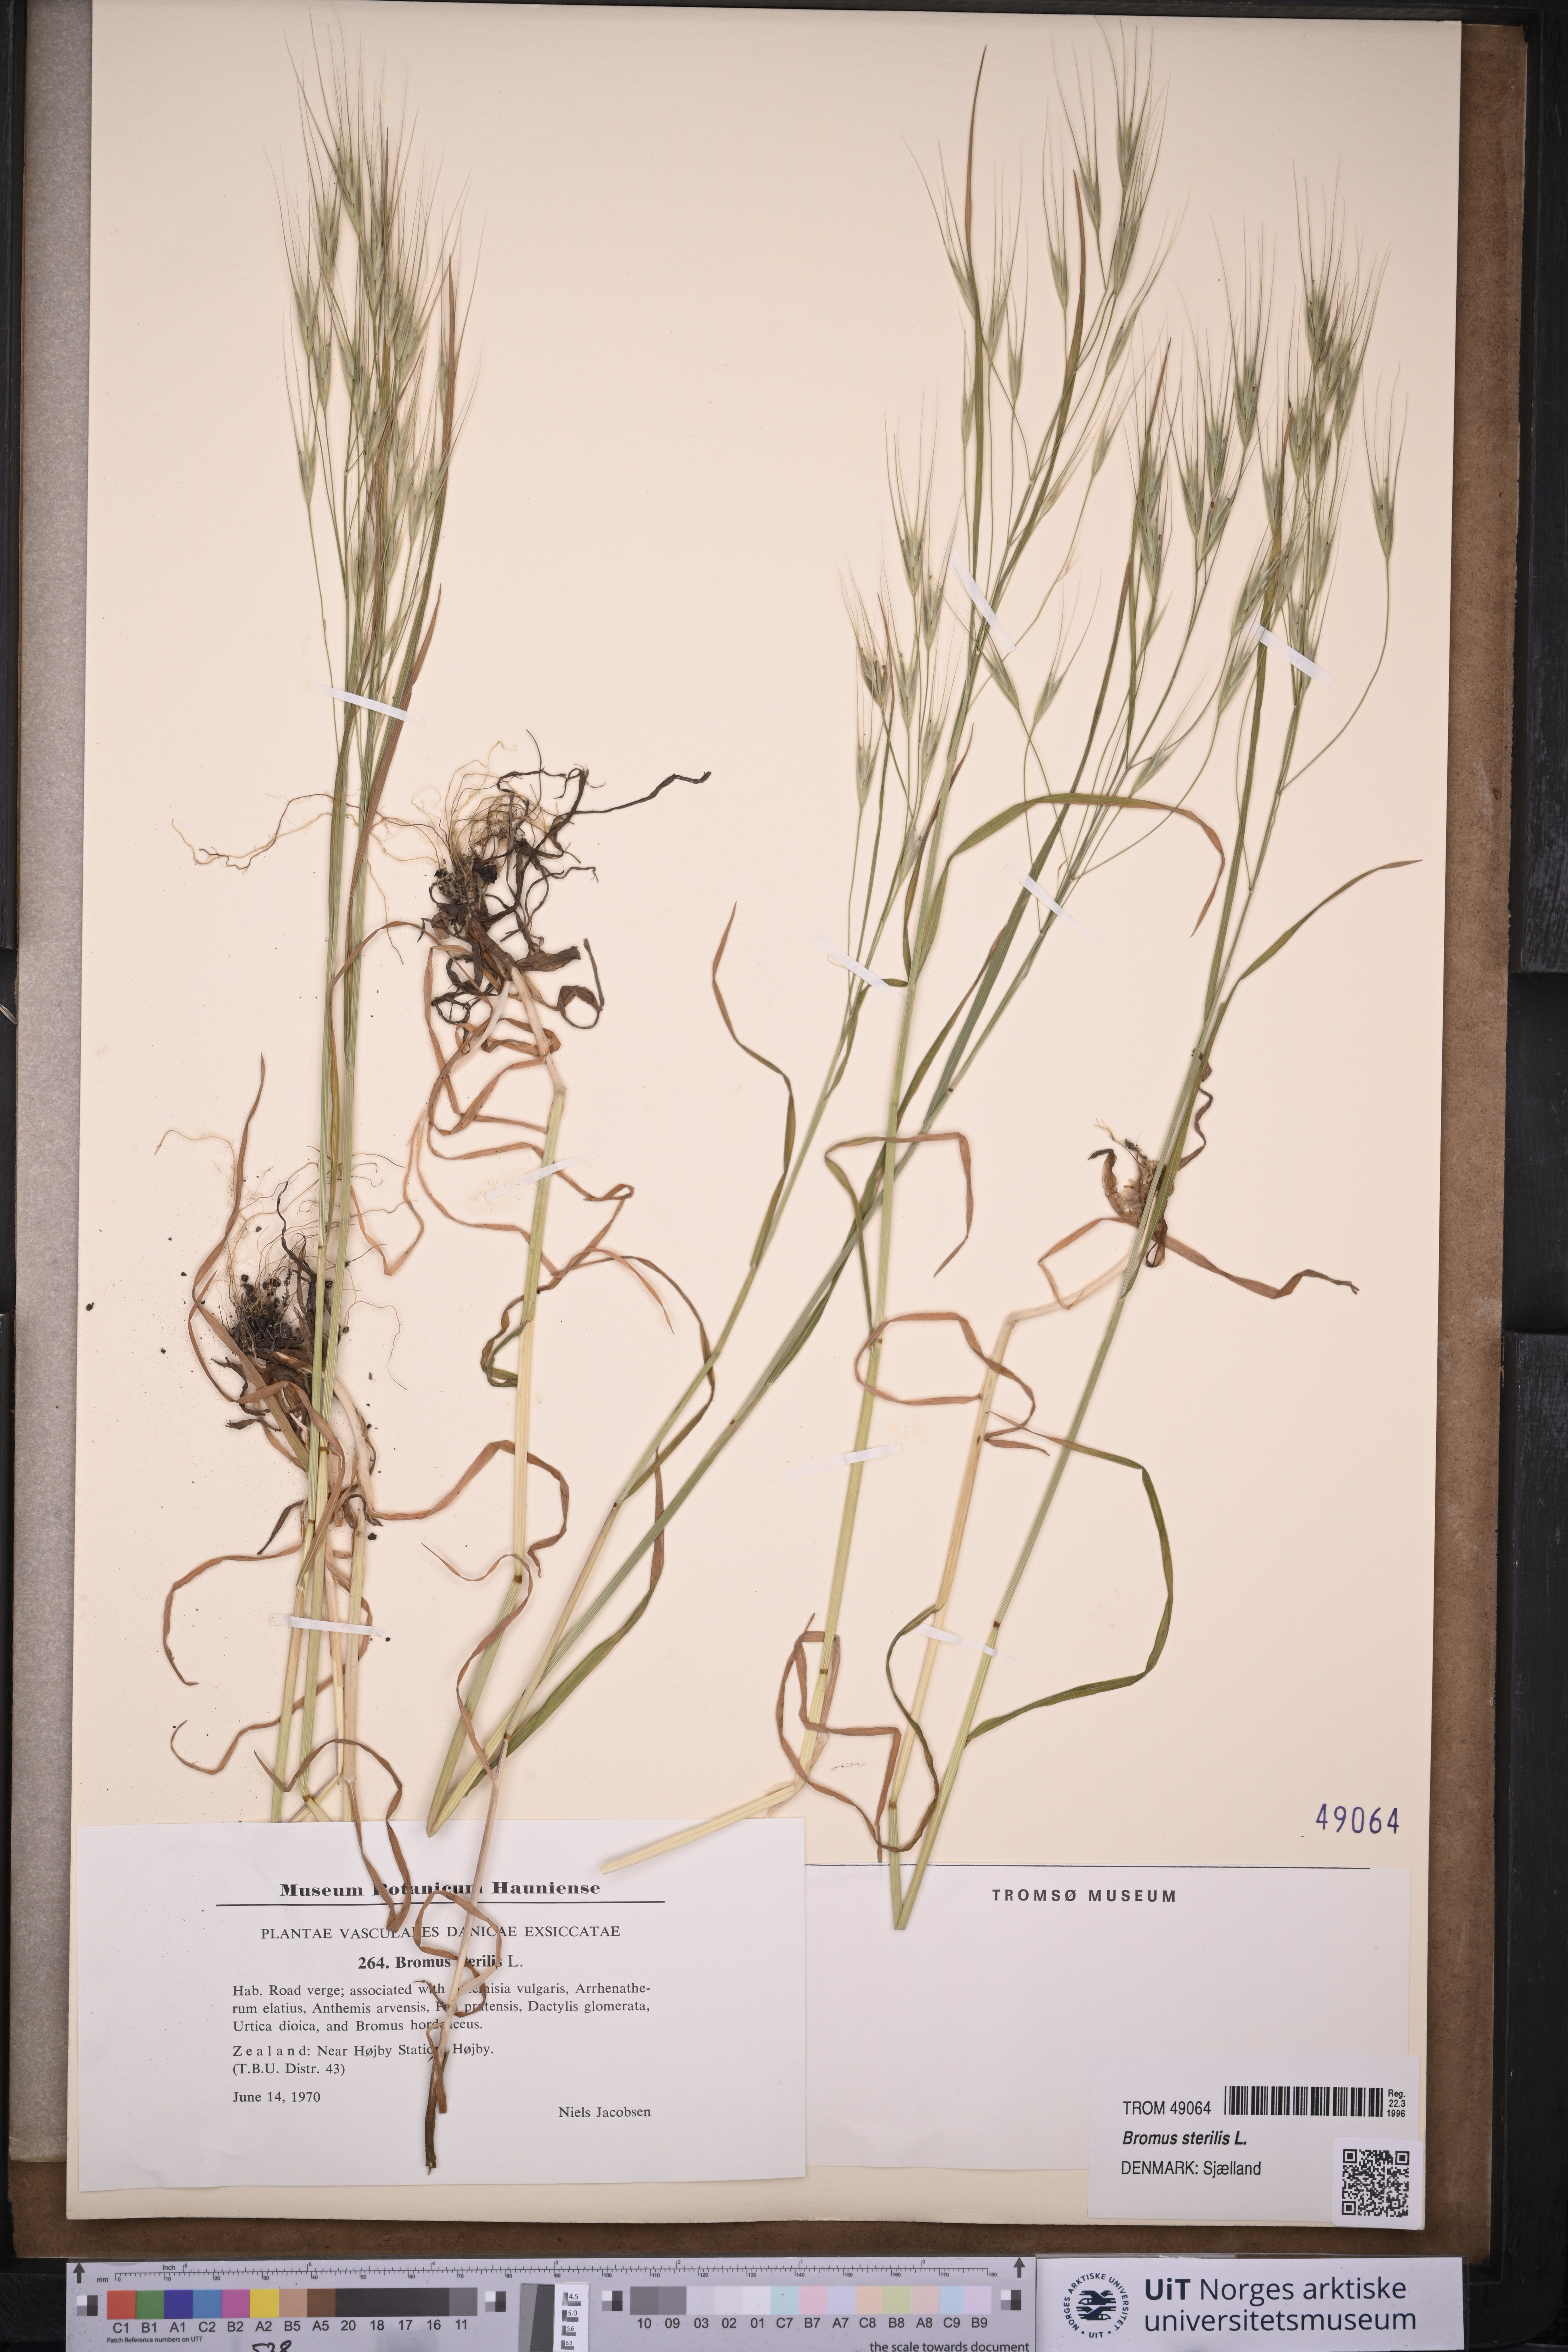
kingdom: Plantae
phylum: Tracheophyta
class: Liliopsida
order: Poales
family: Poaceae
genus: Bromus
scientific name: Bromus sterilis
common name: Poverty brome
